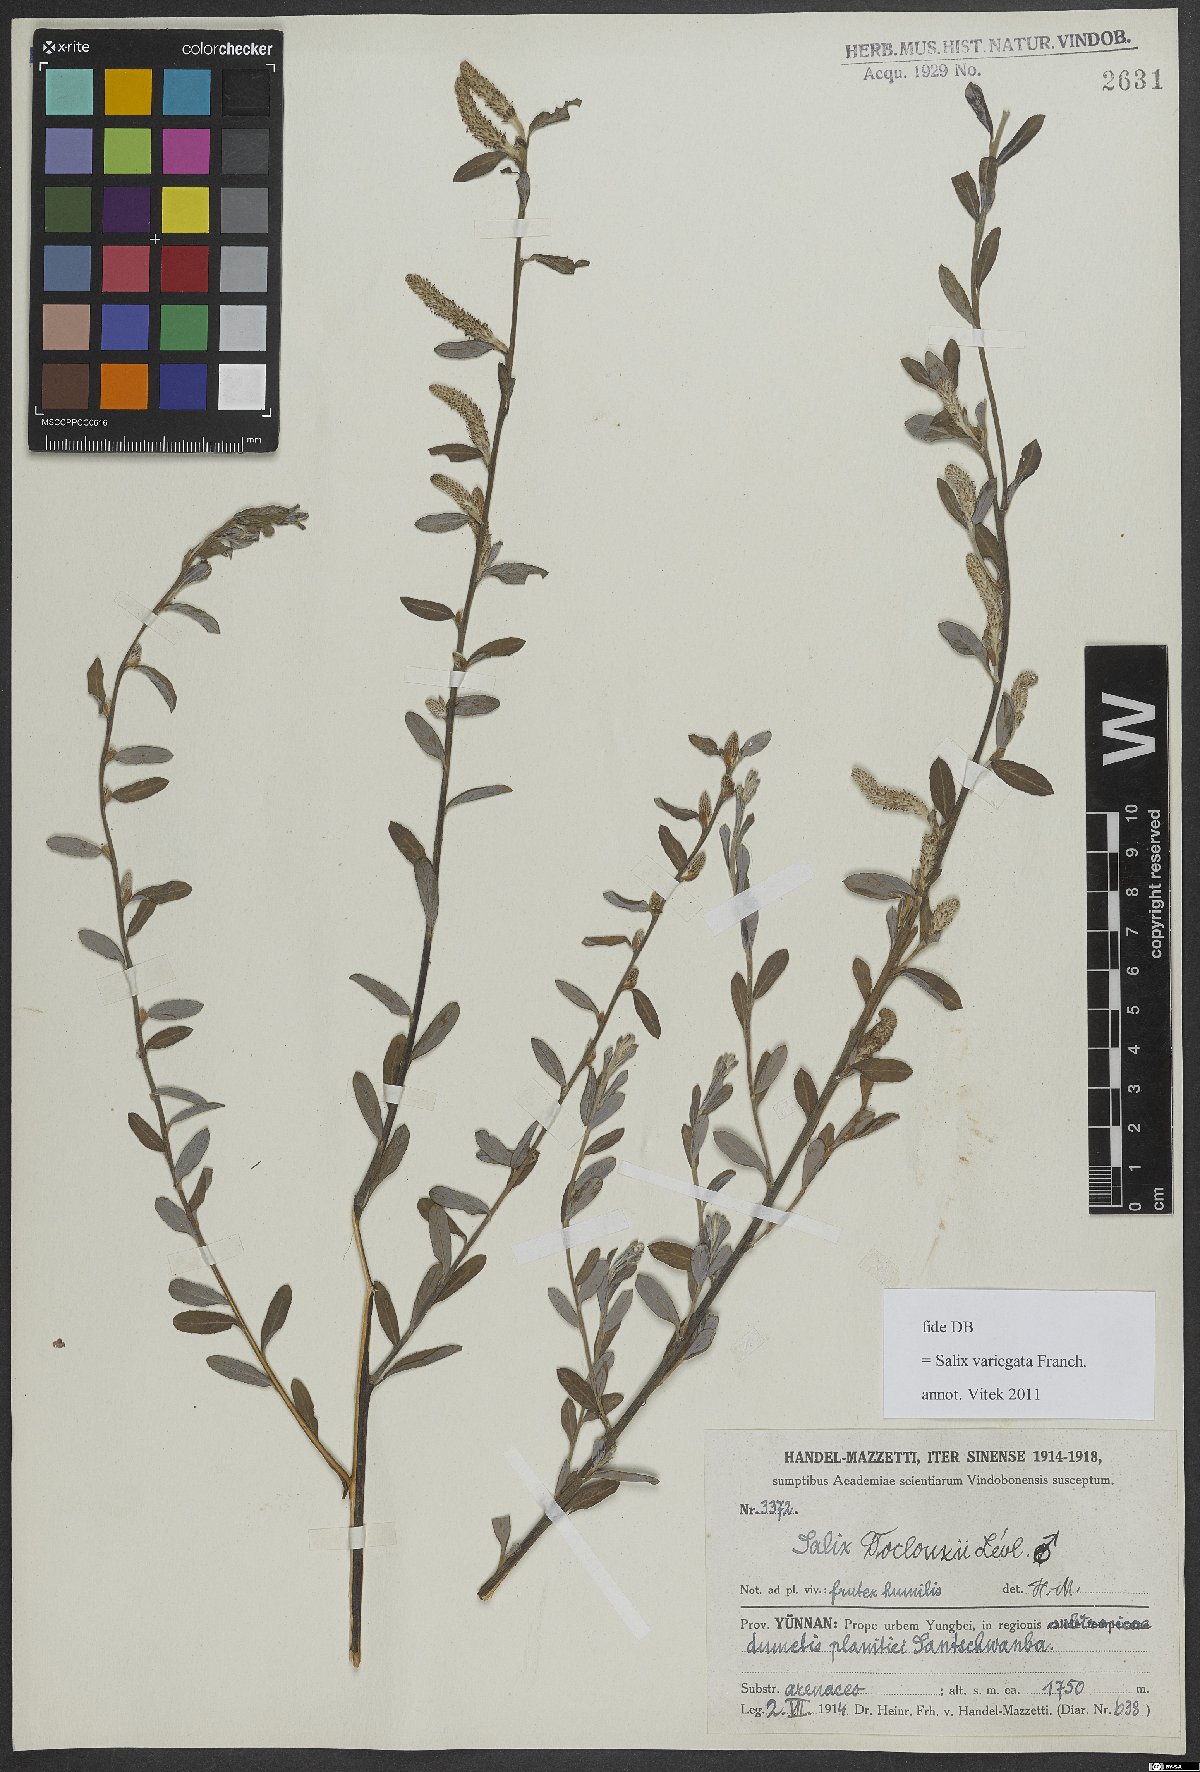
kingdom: Plantae
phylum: Tracheophyta
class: Magnoliopsida
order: Malpighiales
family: Salicaceae
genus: Salix
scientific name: Salix variegata
